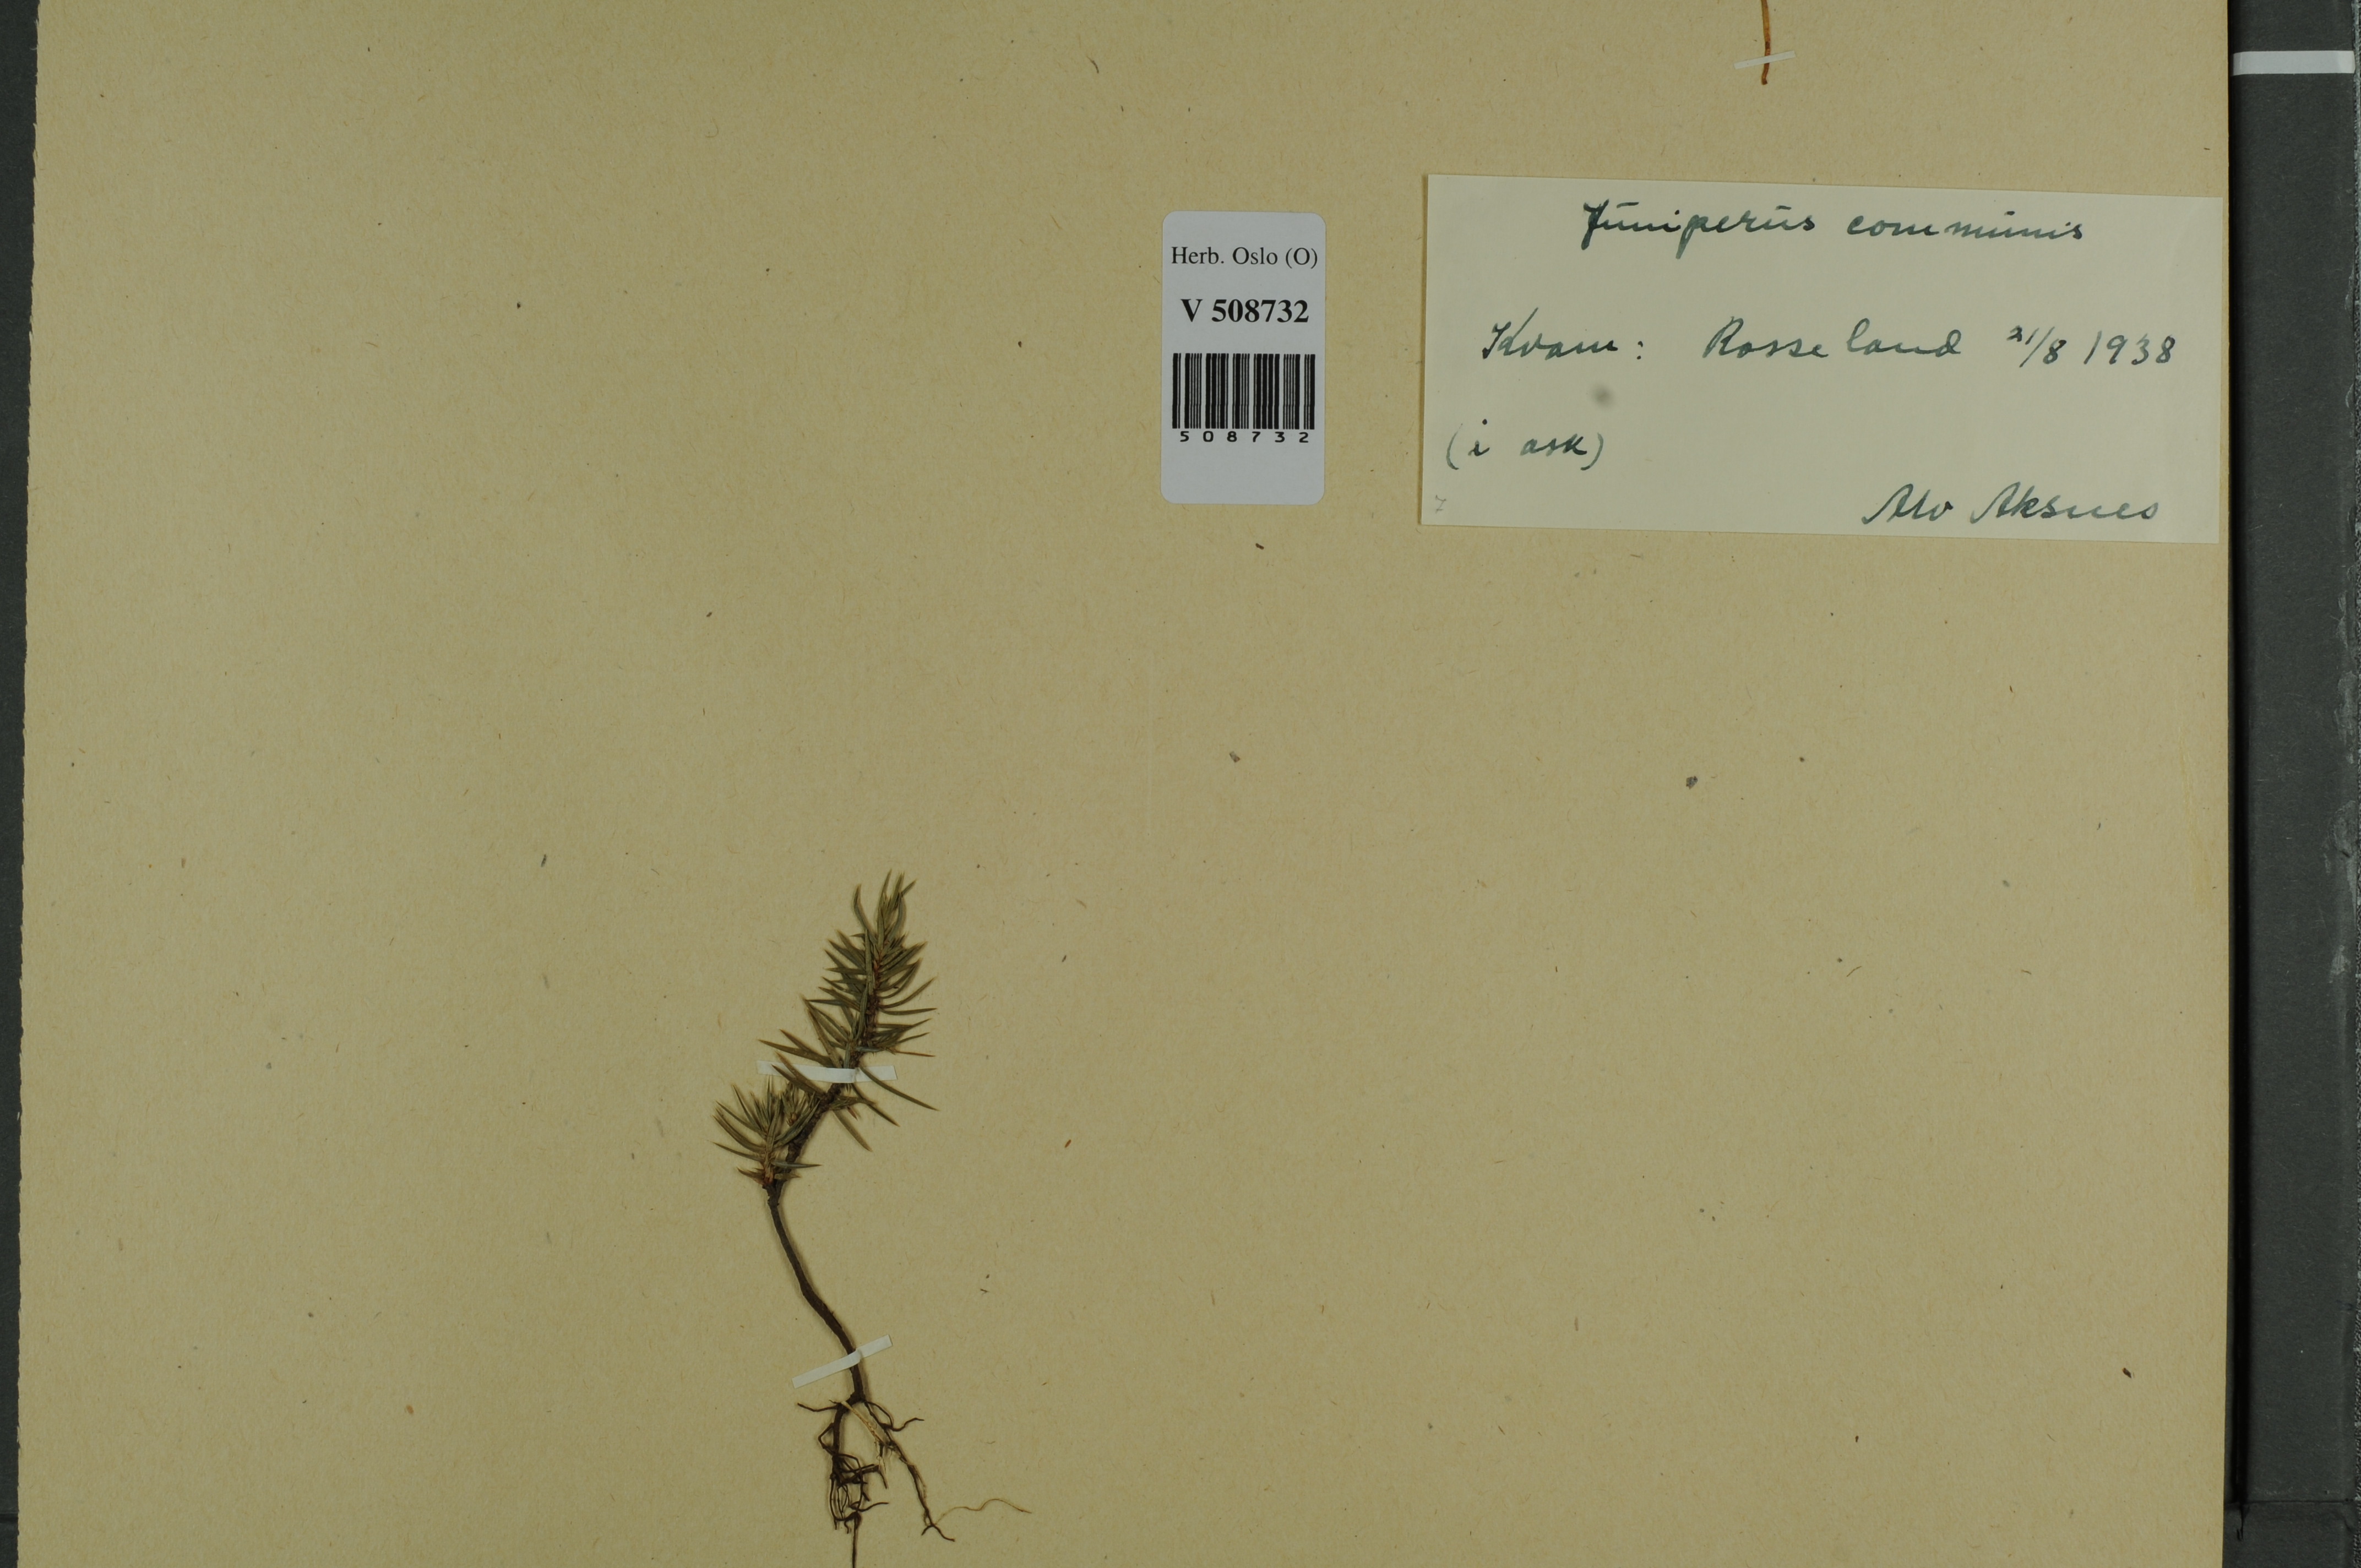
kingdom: Plantae
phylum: Tracheophyta
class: Pinopsida
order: Pinales
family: Cupressaceae
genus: Juniperus
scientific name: Juniperus communis
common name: Common juniper
